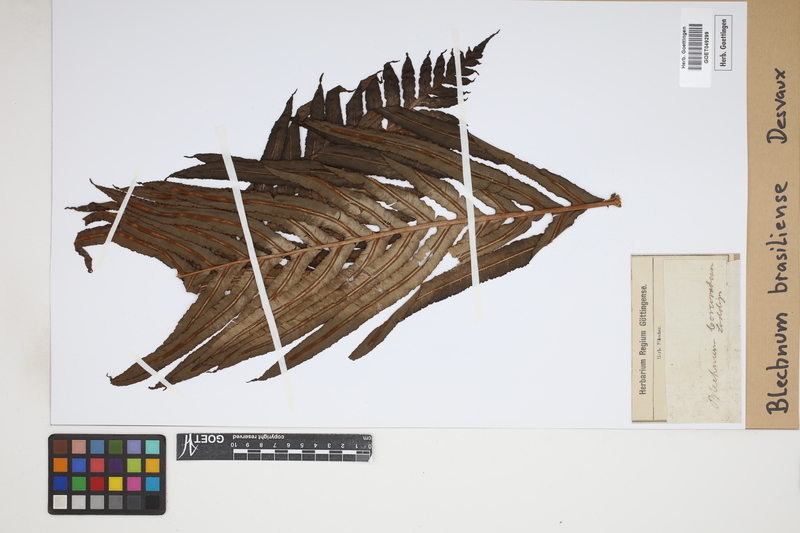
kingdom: Plantae
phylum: Tracheophyta
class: Polypodiopsida
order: Polypodiales
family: Blechnaceae
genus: Neoblechnum
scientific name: Neoblechnum brasiliense
